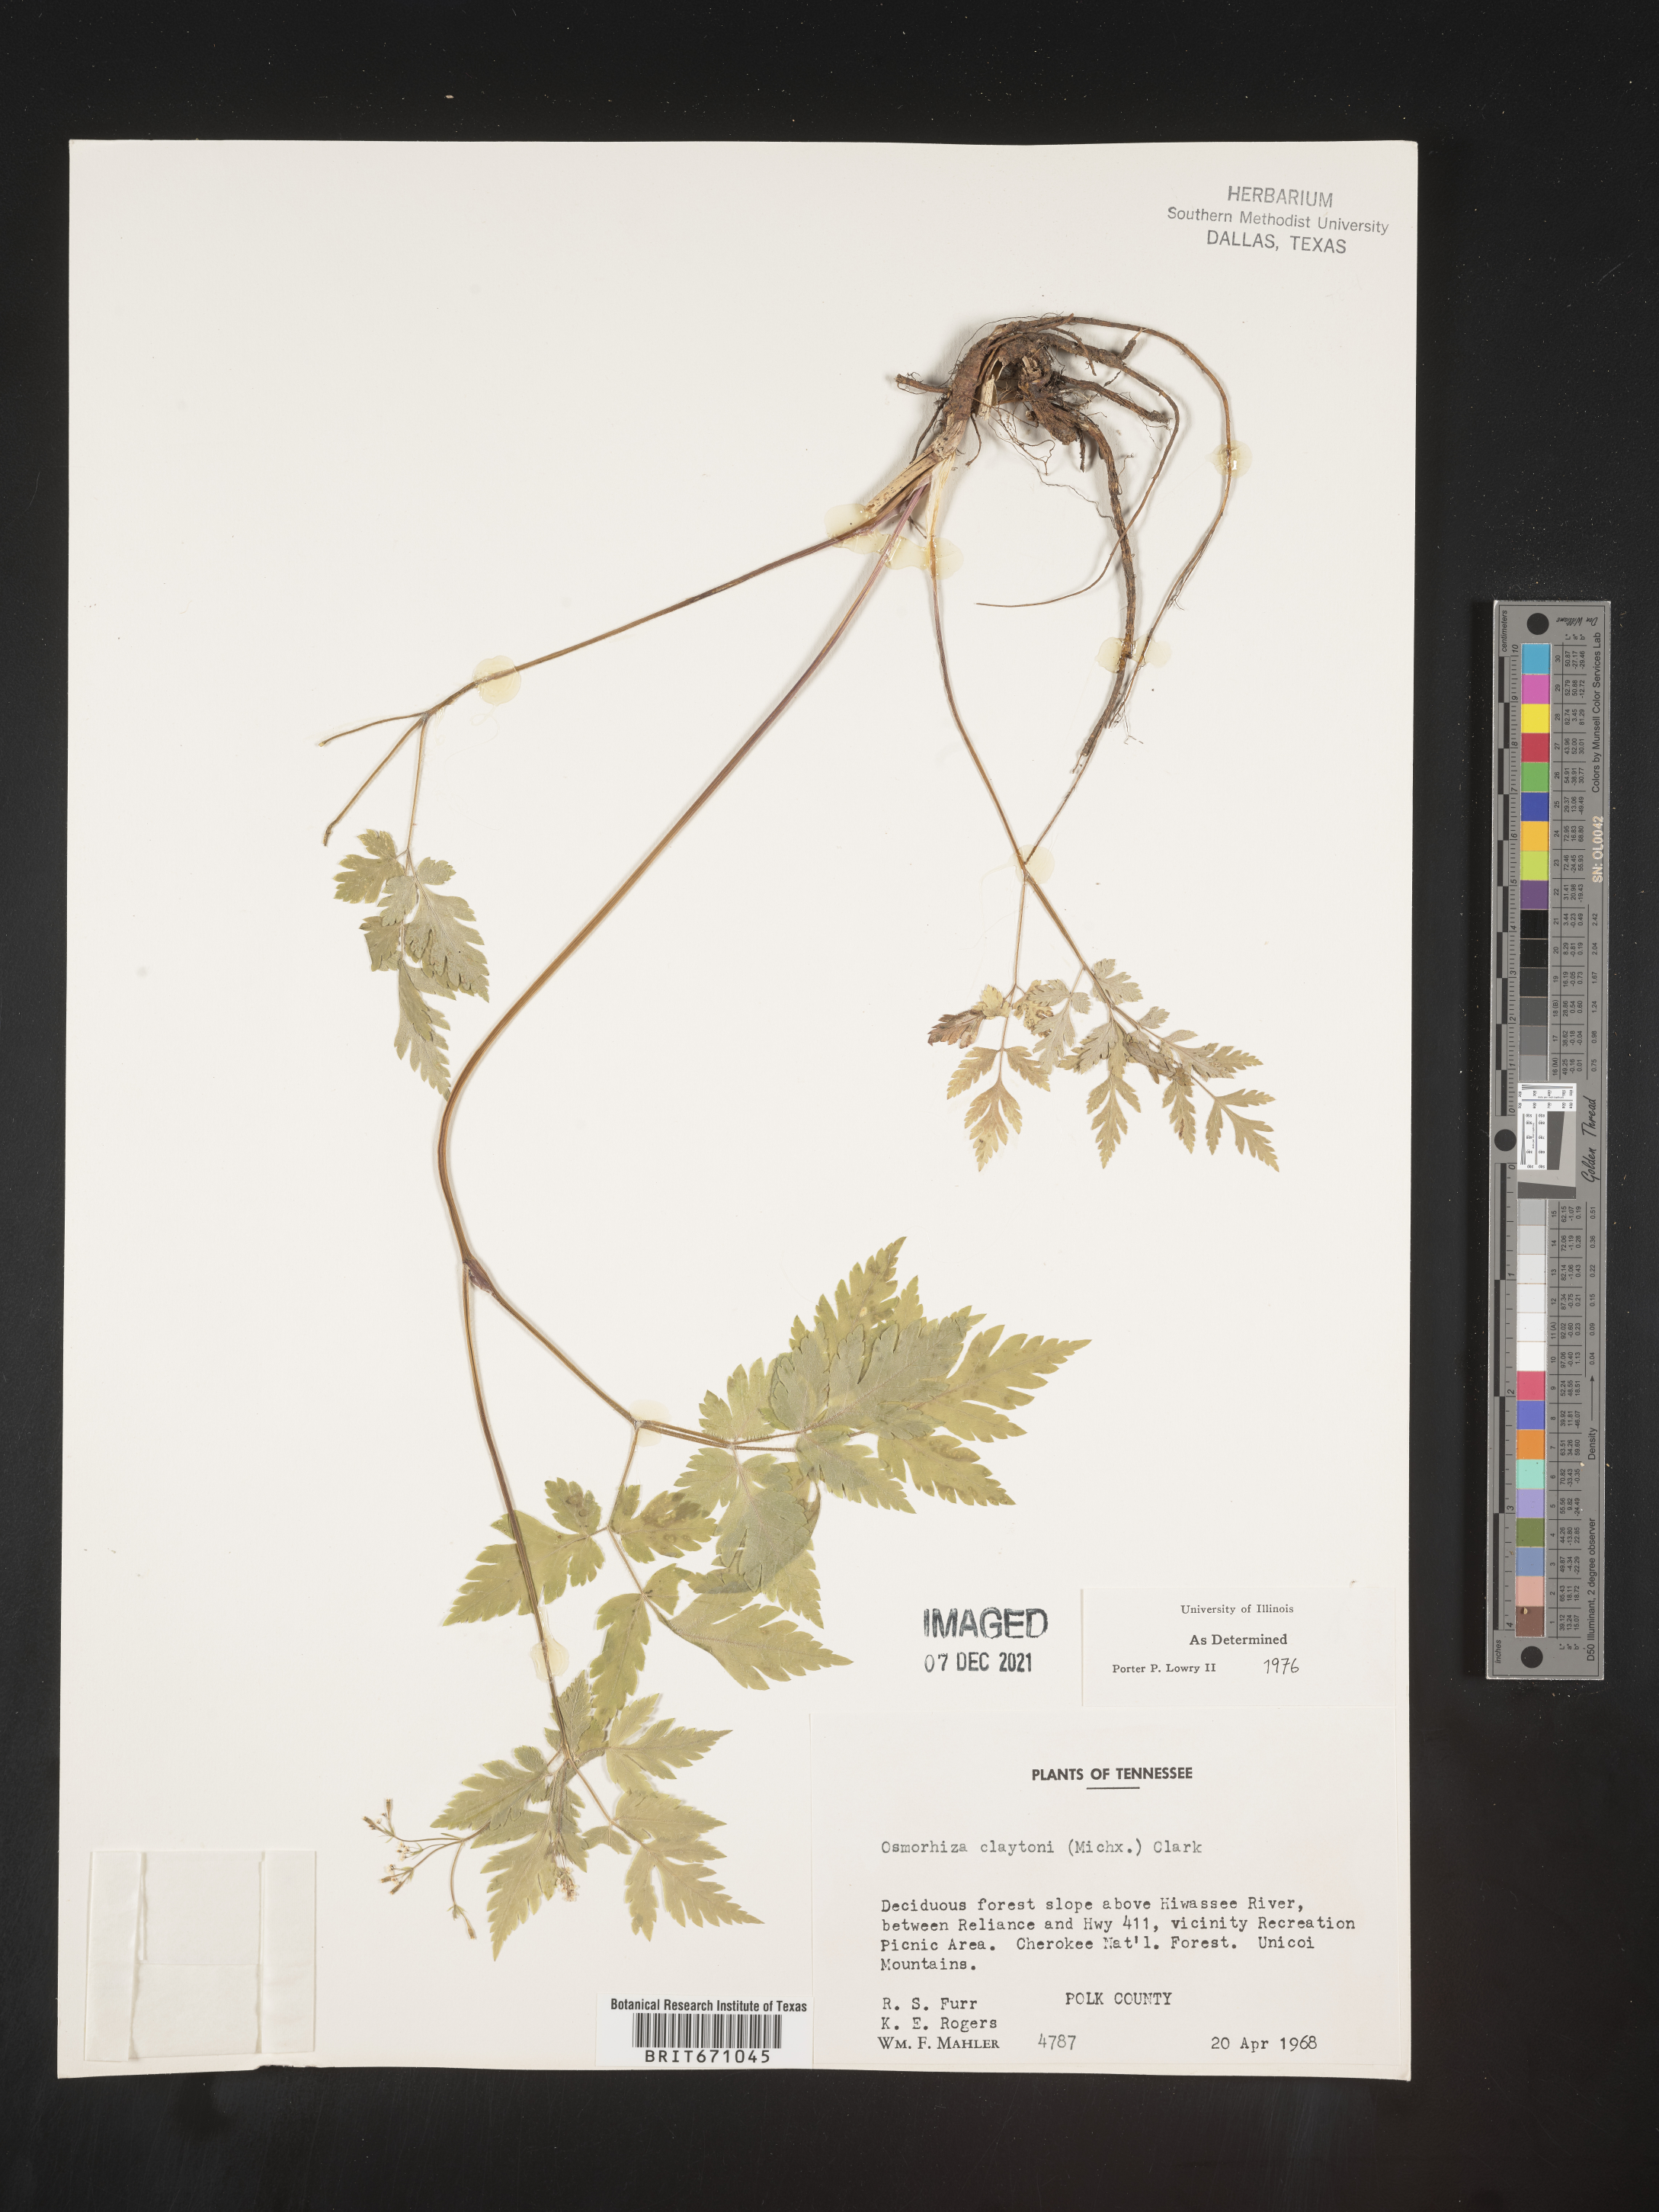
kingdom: Plantae
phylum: Tracheophyta
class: Magnoliopsida
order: Apiales
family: Apiaceae
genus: Osmorhiza
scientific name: Osmorhiza claytonii
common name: Hairy sweet cicely
